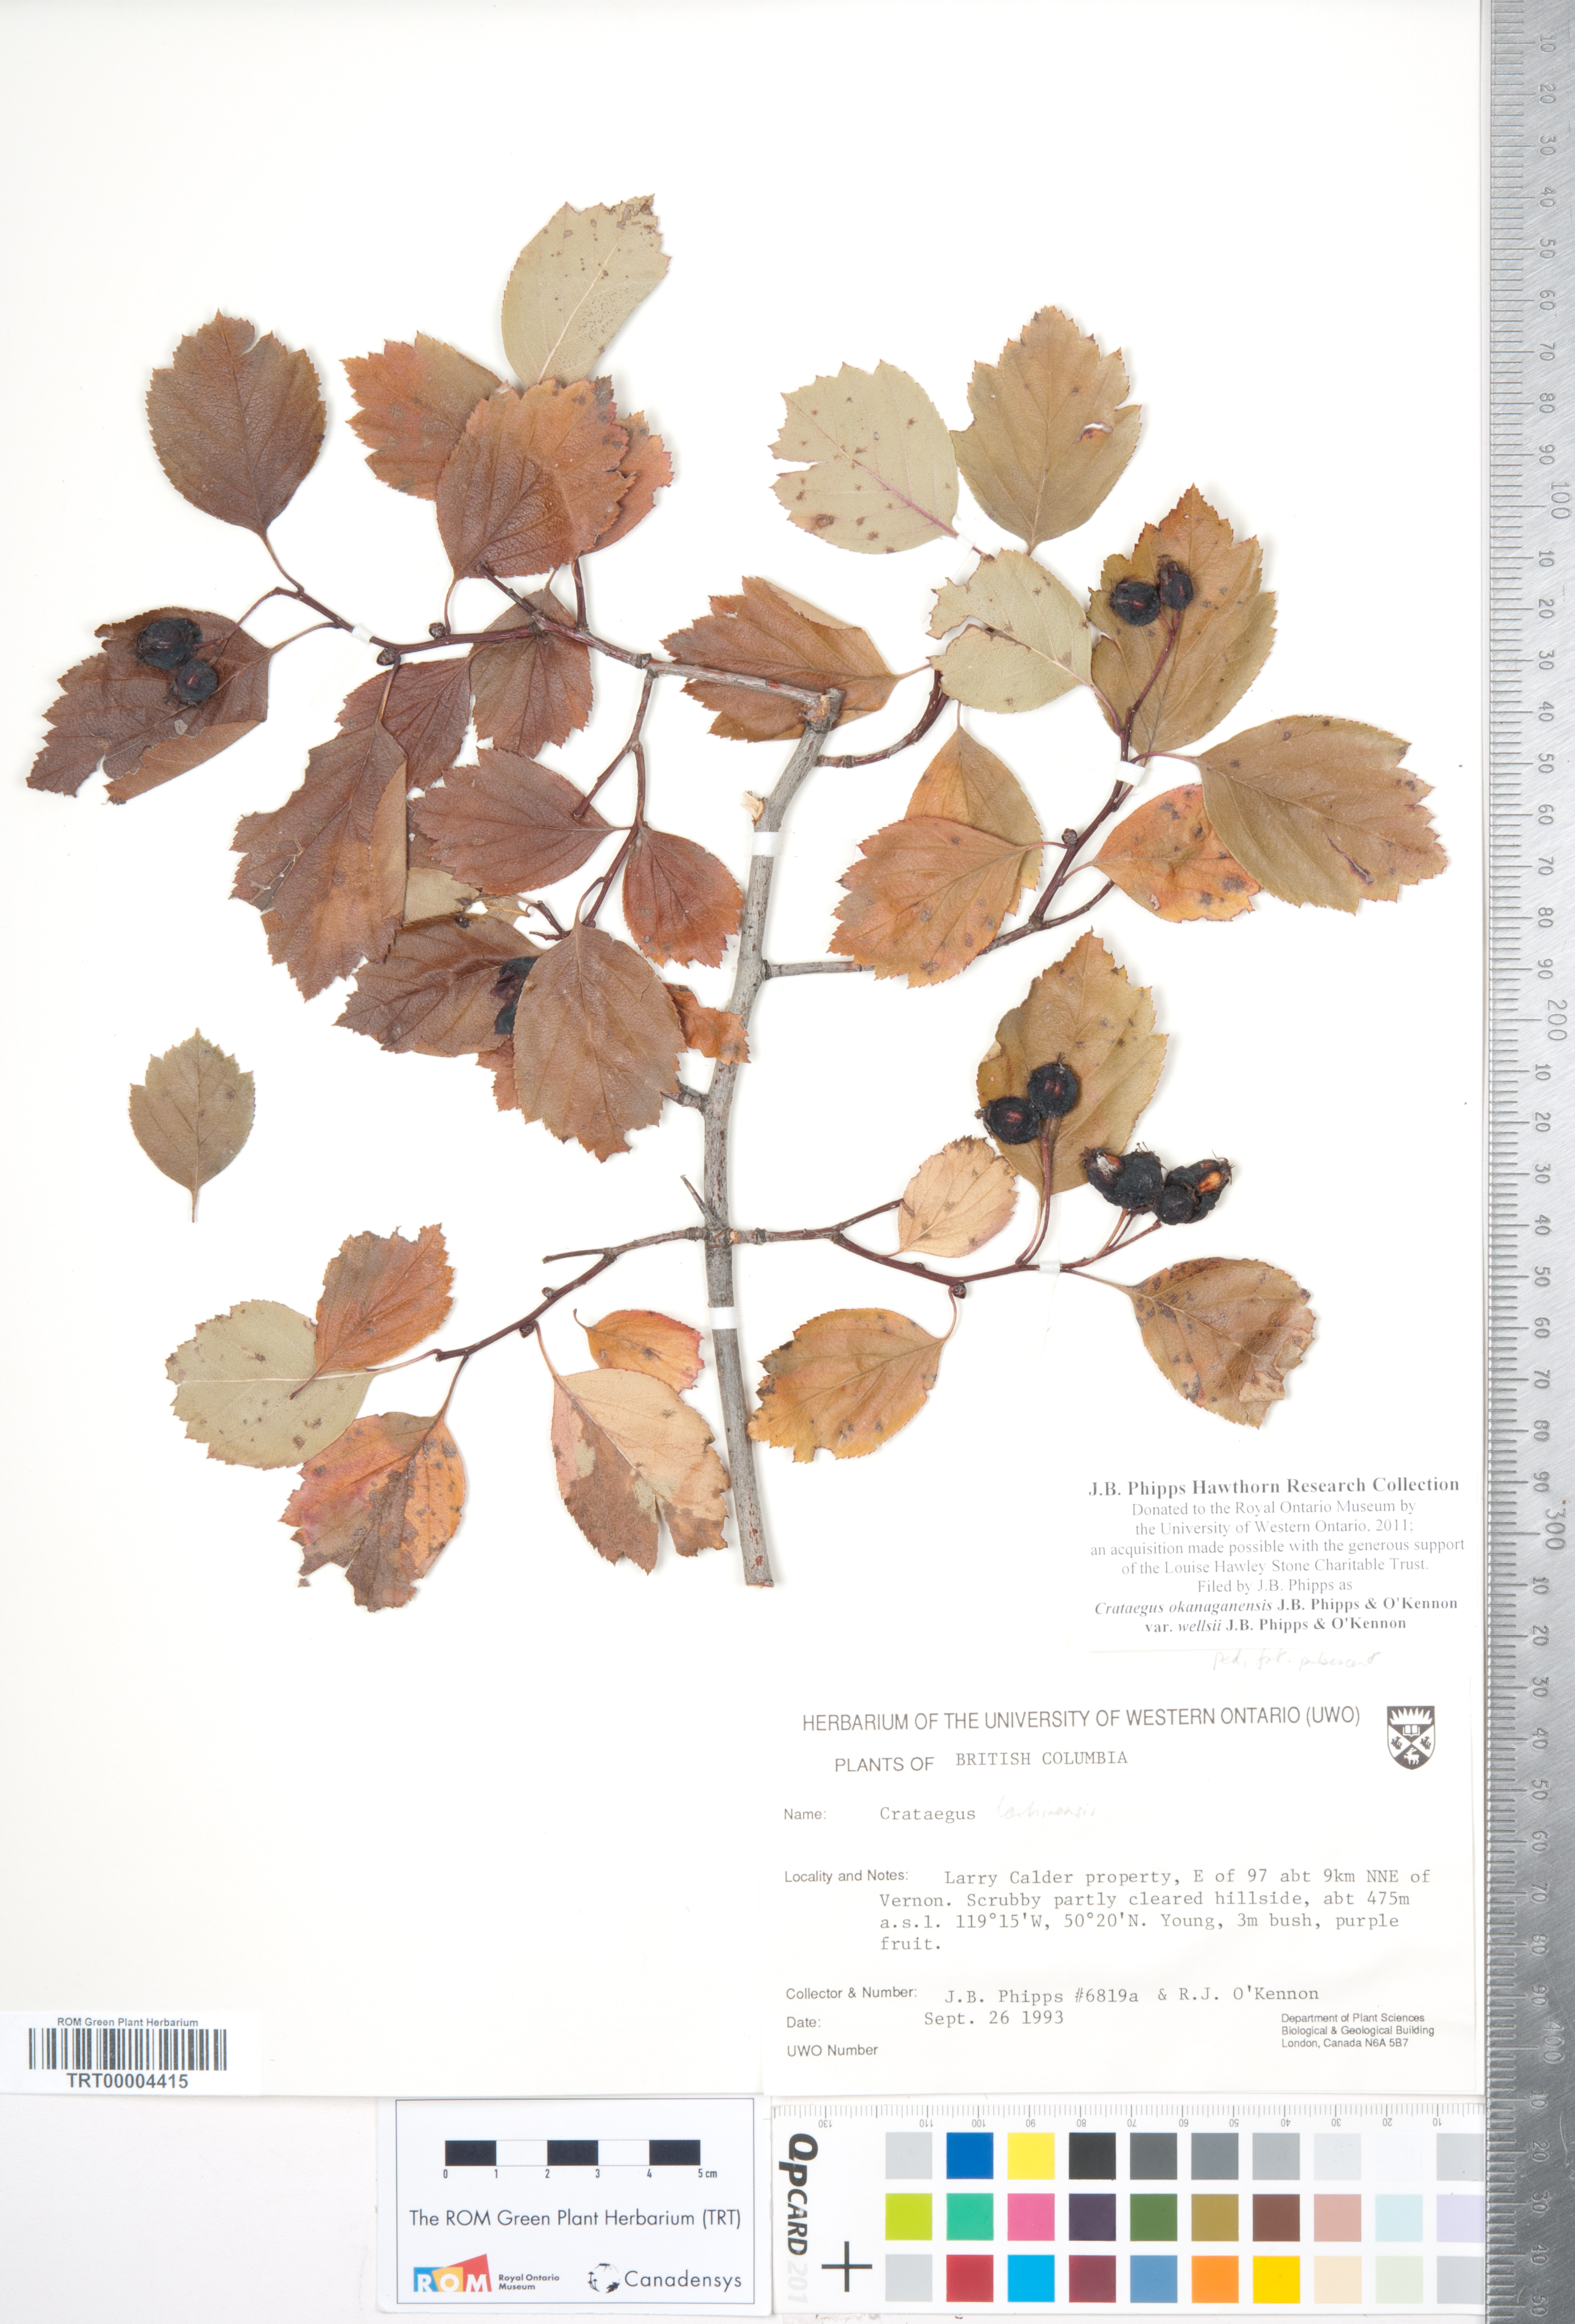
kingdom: Plantae
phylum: Tracheophyta
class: Magnoliopsida
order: Rosales
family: Rosaceae
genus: Crataegus
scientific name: Crataegus okanaganensis
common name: Okanagan valley hawthorn
